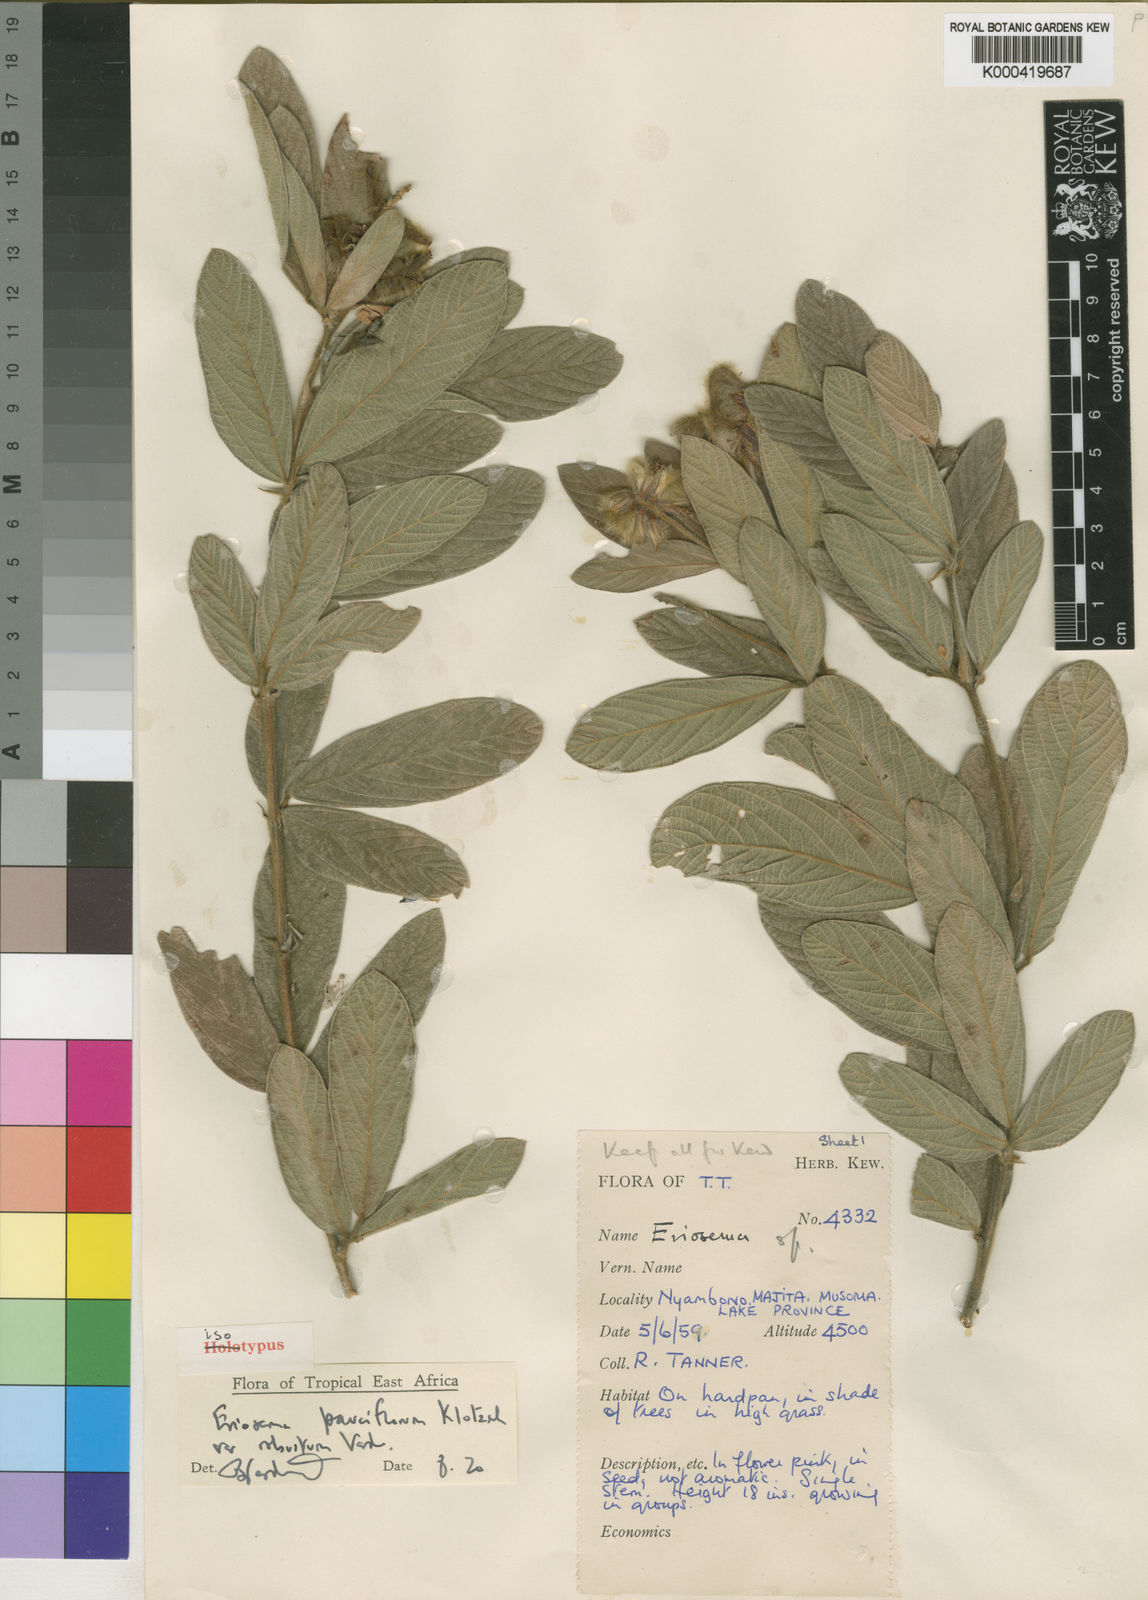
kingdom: Plantae
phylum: Tracheophyta
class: Magnoliopsida
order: Fabales
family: Fabaceae
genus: Eriosema
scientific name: Eriosema pauciflorum
